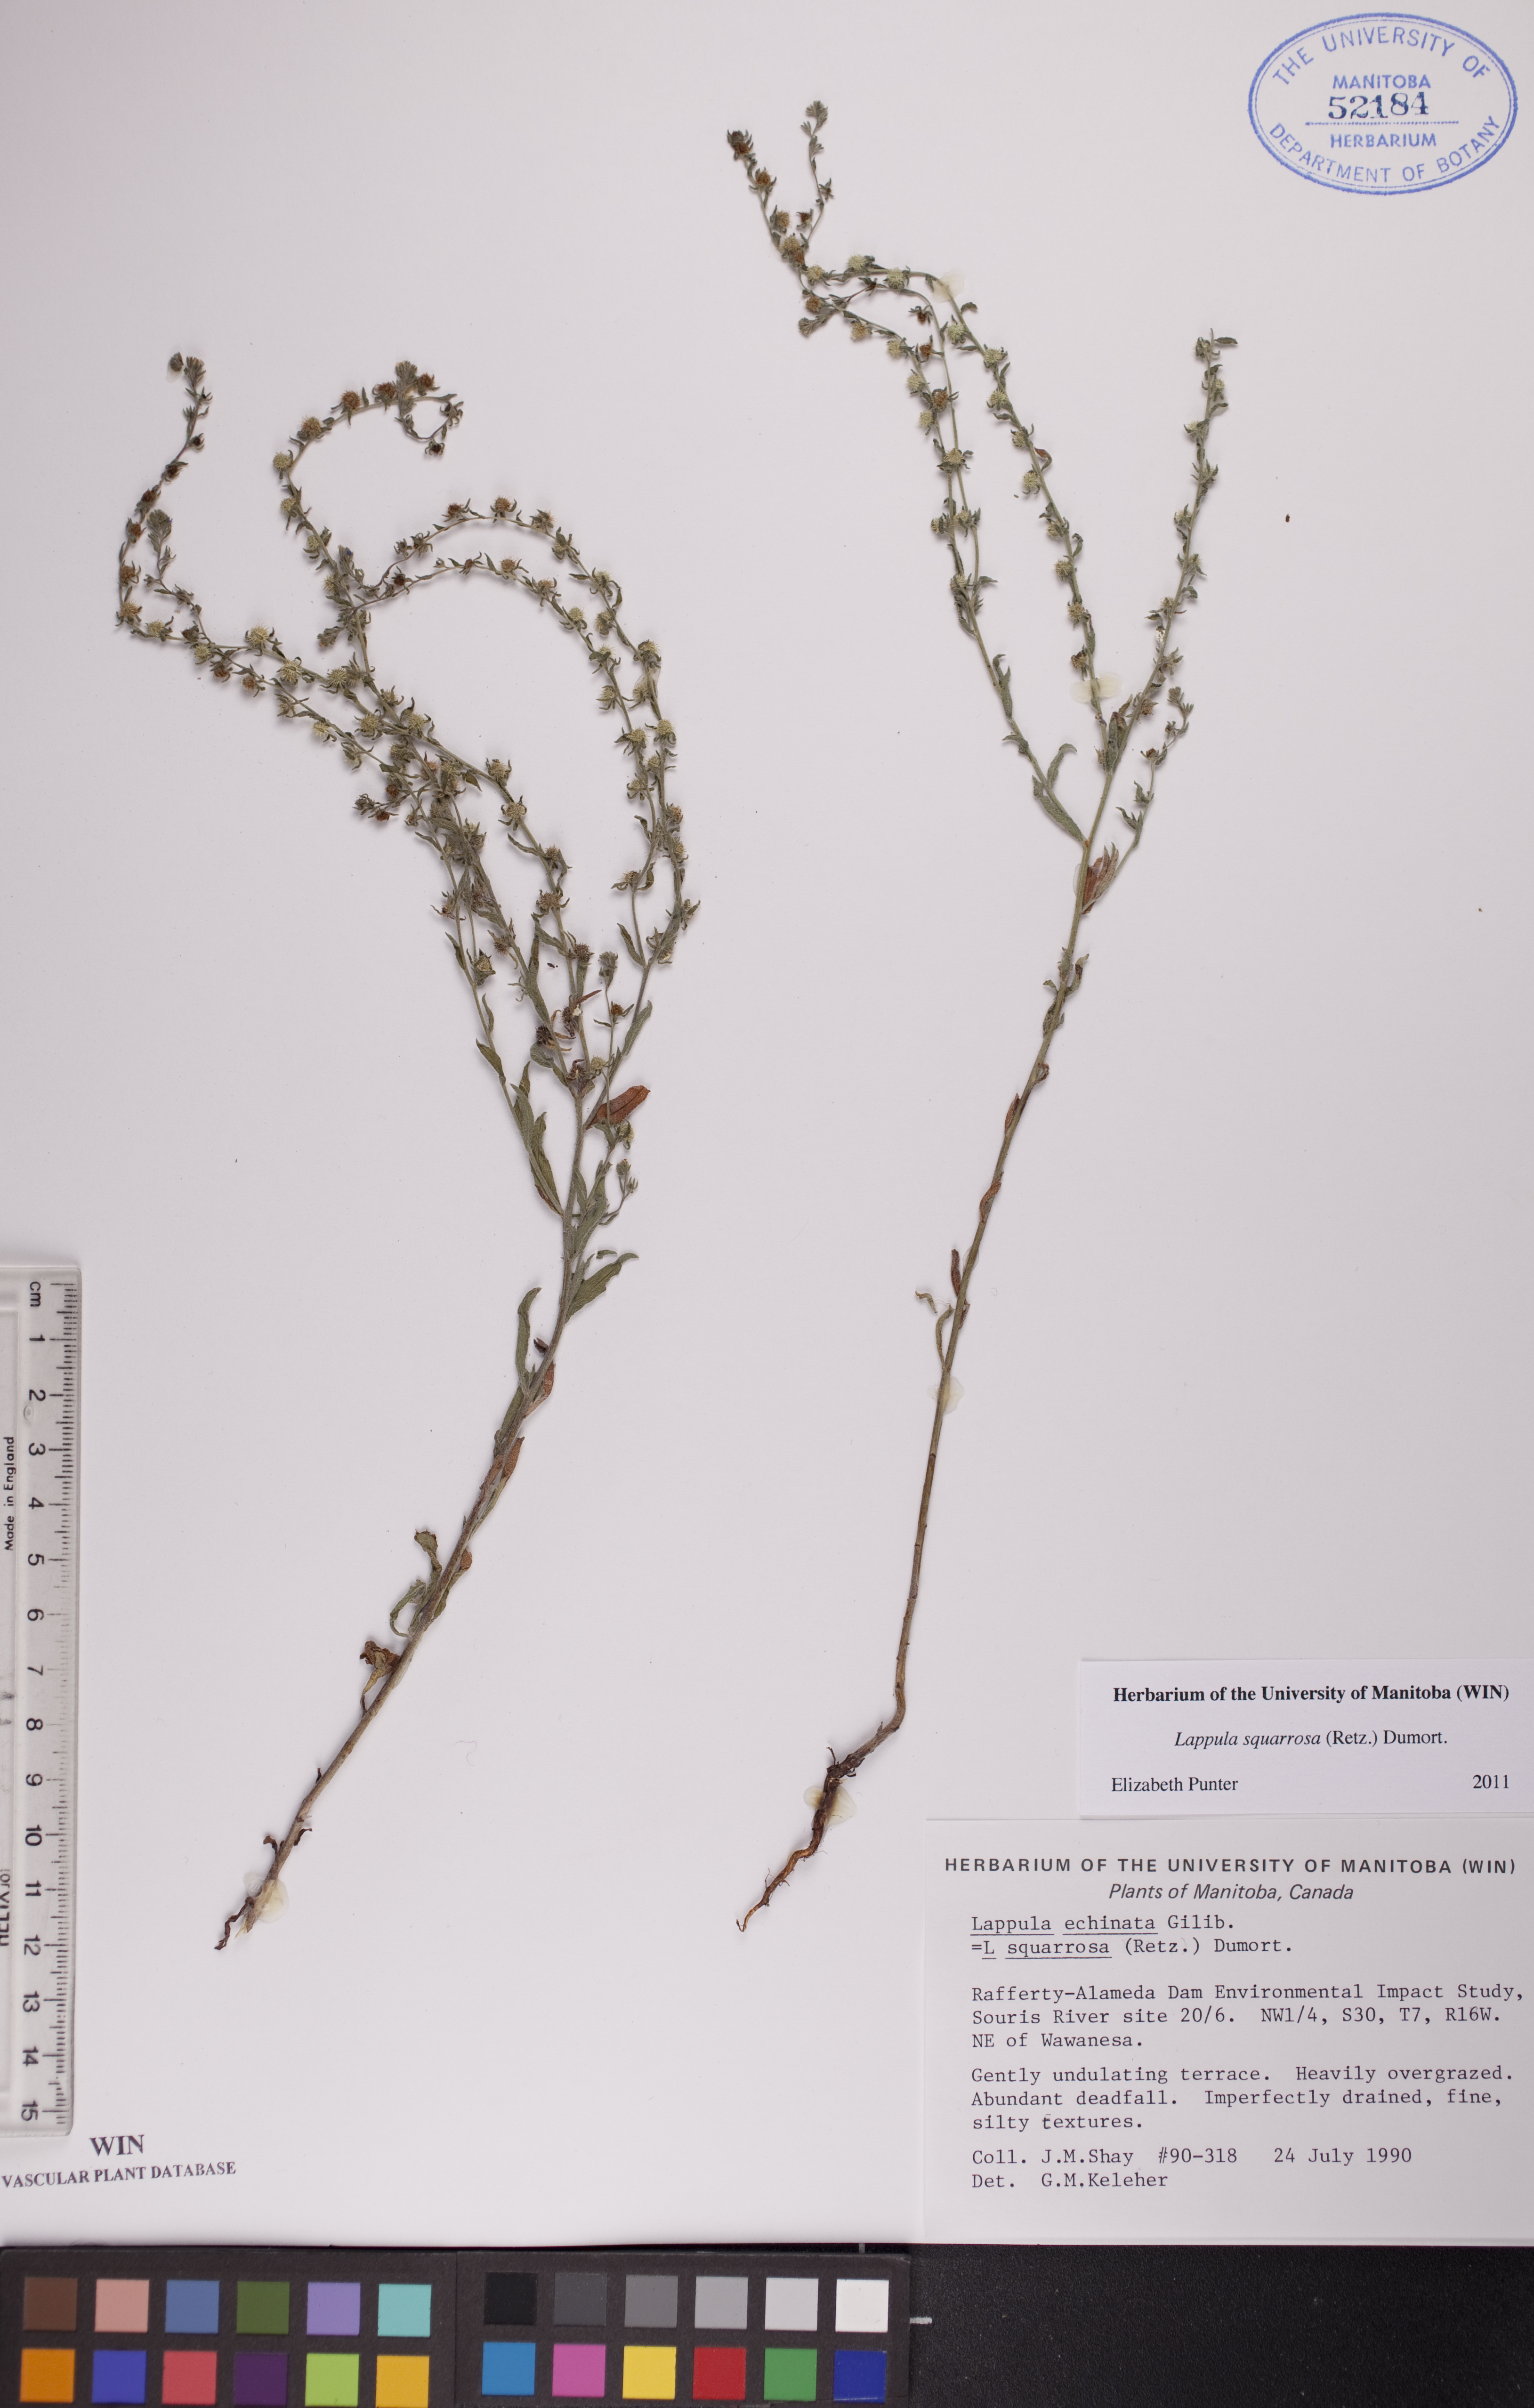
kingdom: Plantae
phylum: Tracheophyta
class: Magnoliopsida
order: Boraginales
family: Boraginaceae
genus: Lappula
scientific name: Lappula squarrosa
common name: European stickseed
